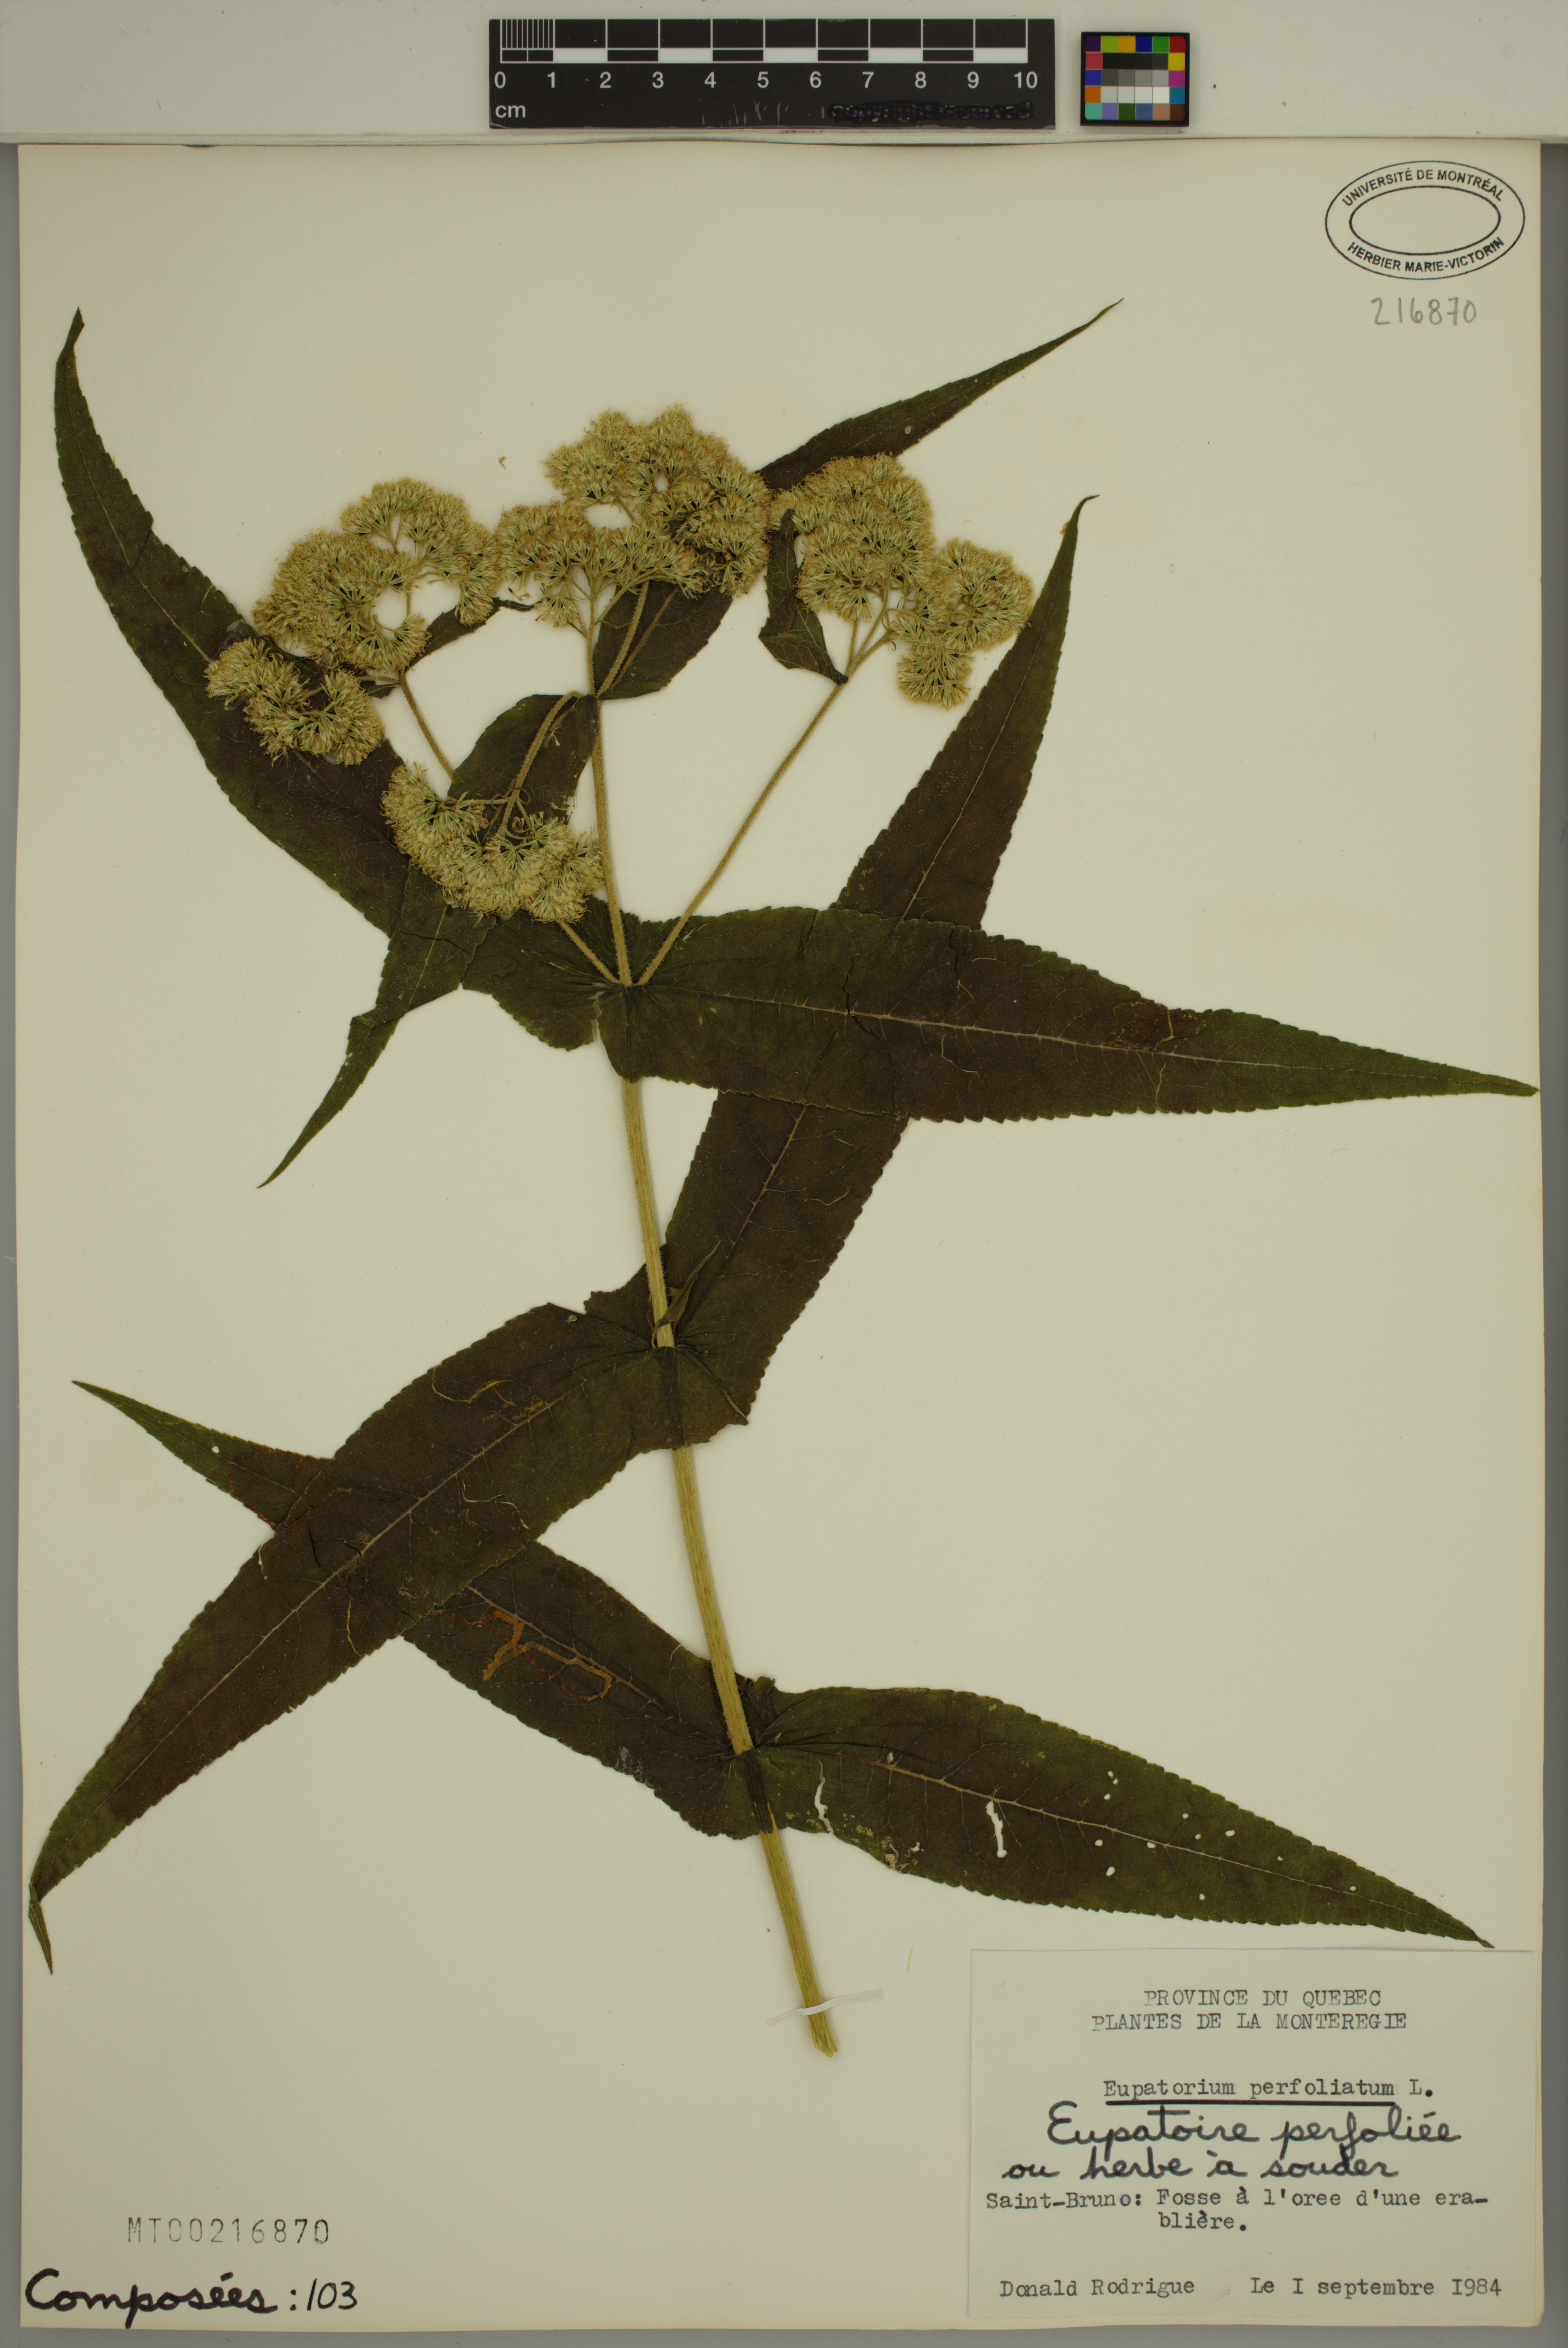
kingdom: Plantae
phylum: Tracheophyta
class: Magnoliopsida
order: Asterales
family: Asteraceae
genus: Eupatorium
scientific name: Eupatorium perfoliatum
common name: Boneset
